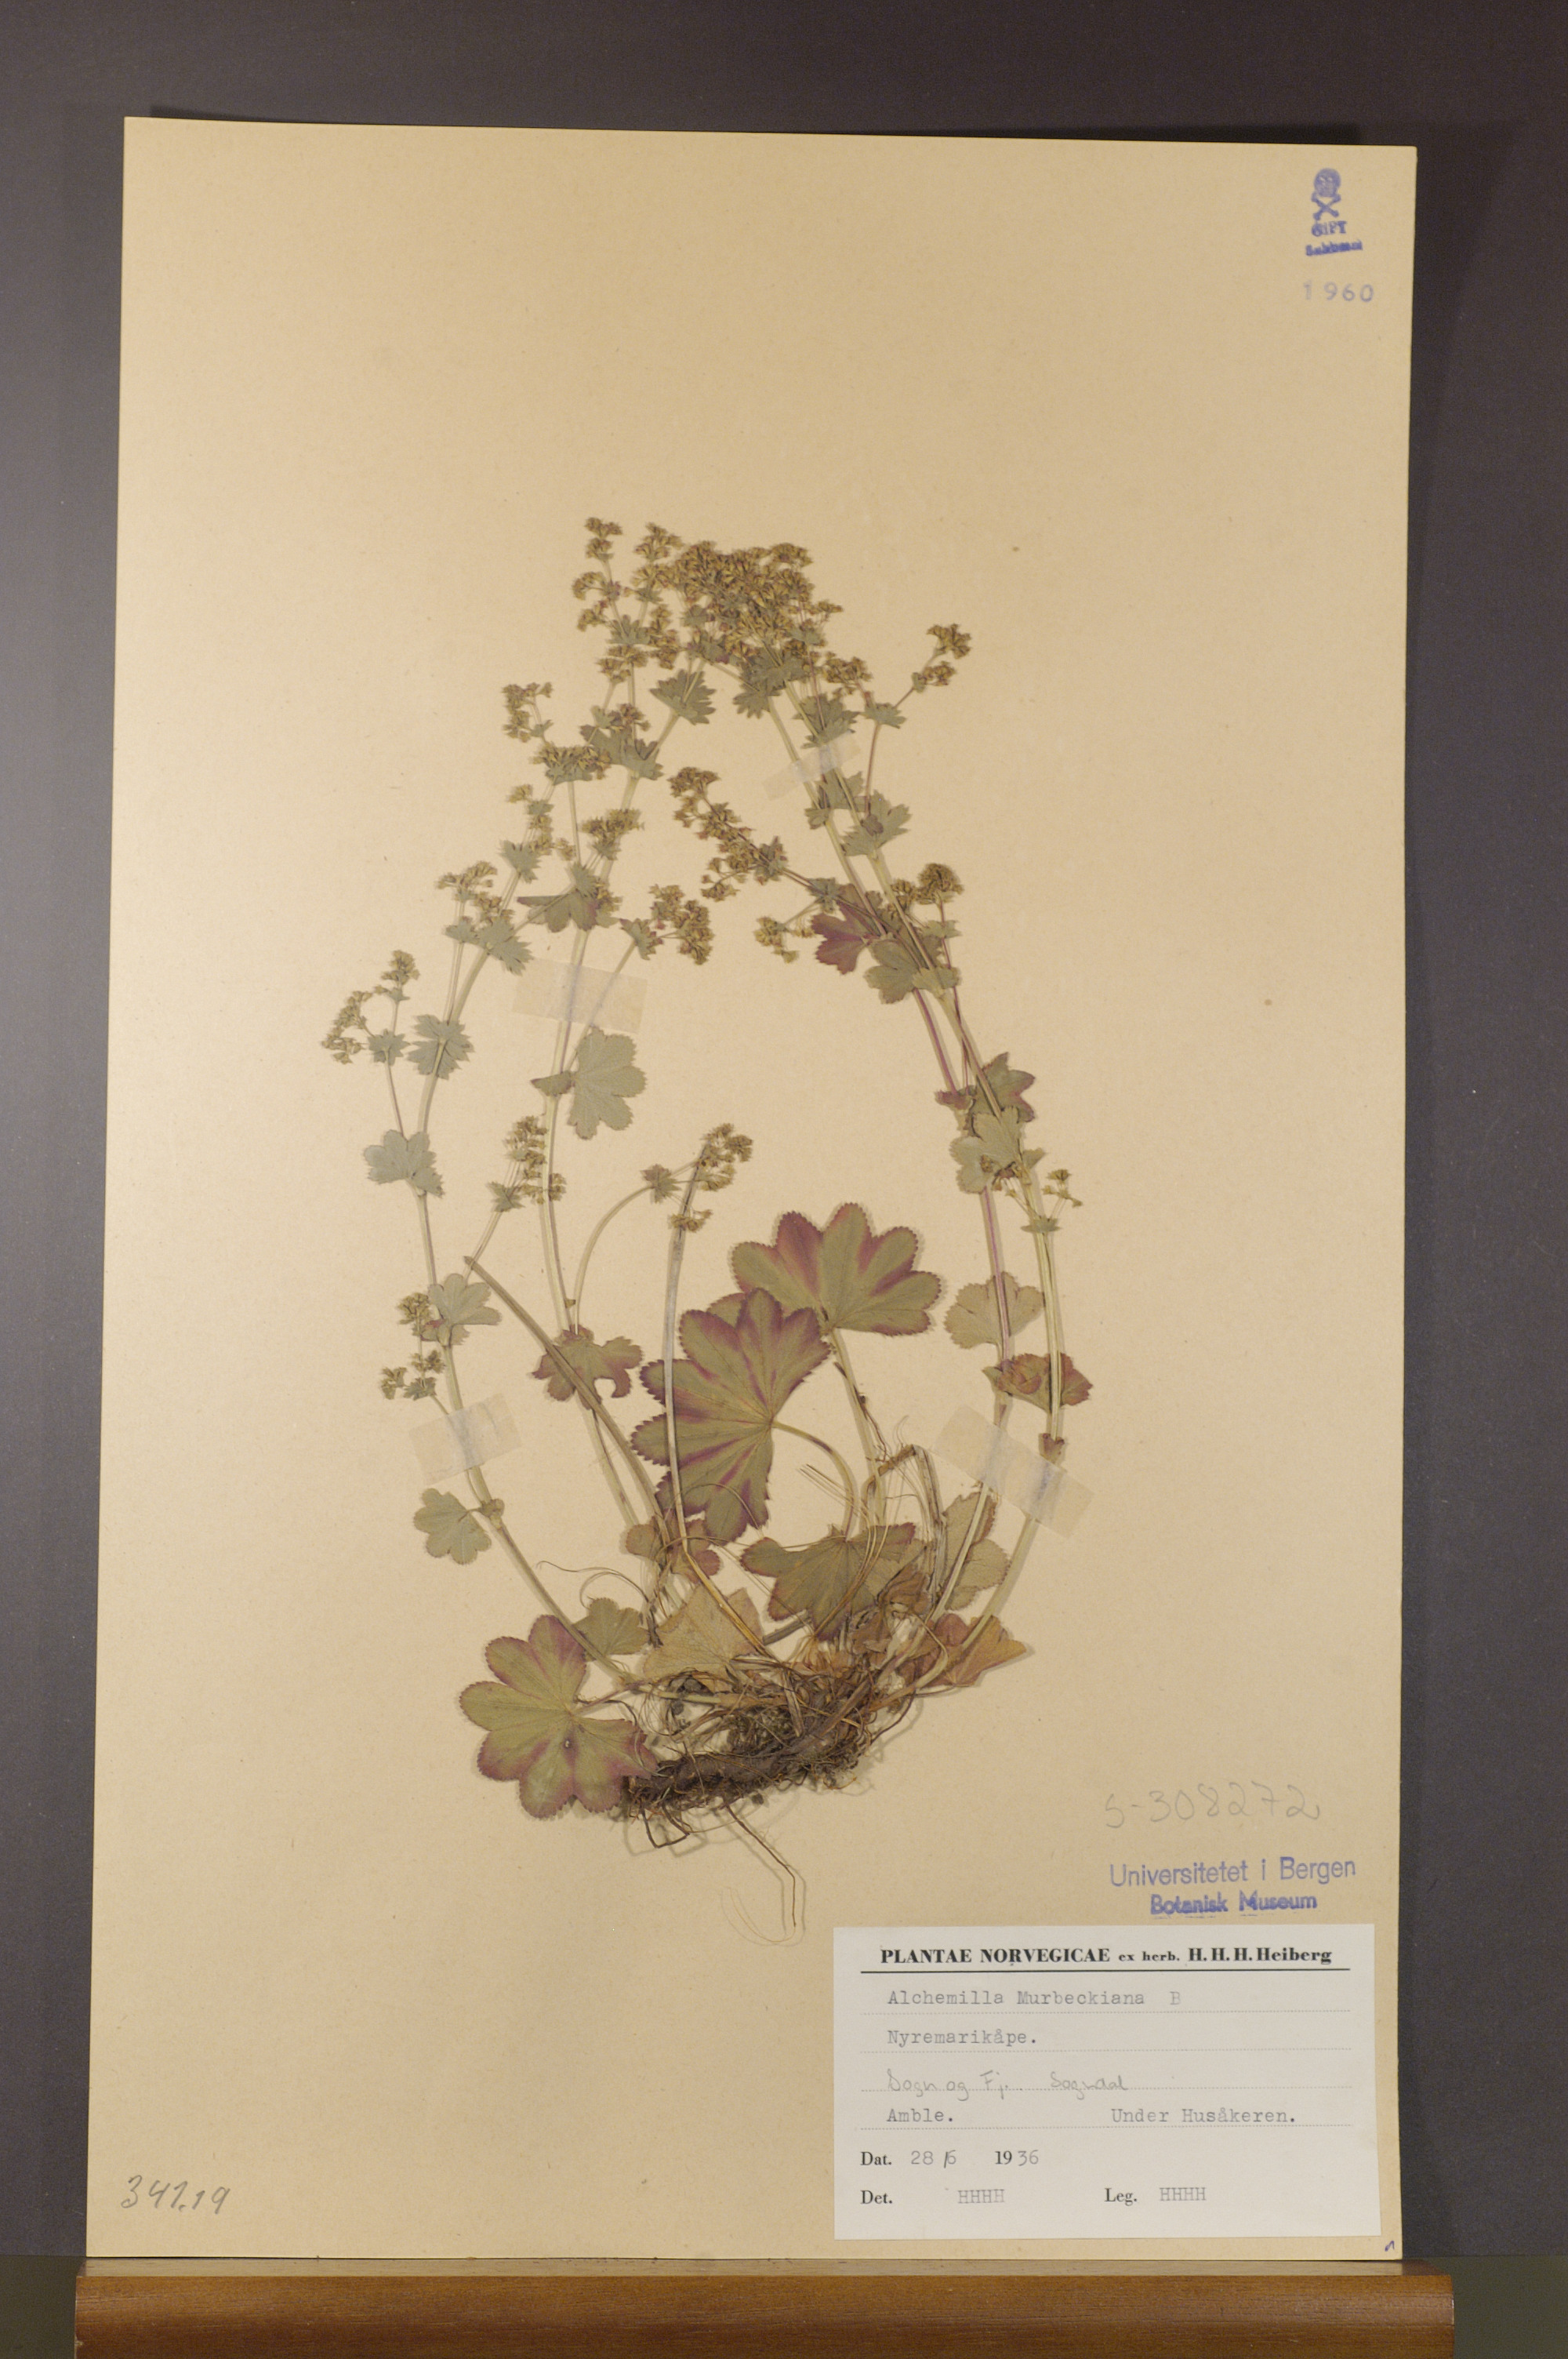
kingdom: Plantae
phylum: Tracheophyta
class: Magnoliopsida
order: Rosales
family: Rosaceae
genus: Alchemilla
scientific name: Alchemilla murbeckiana
